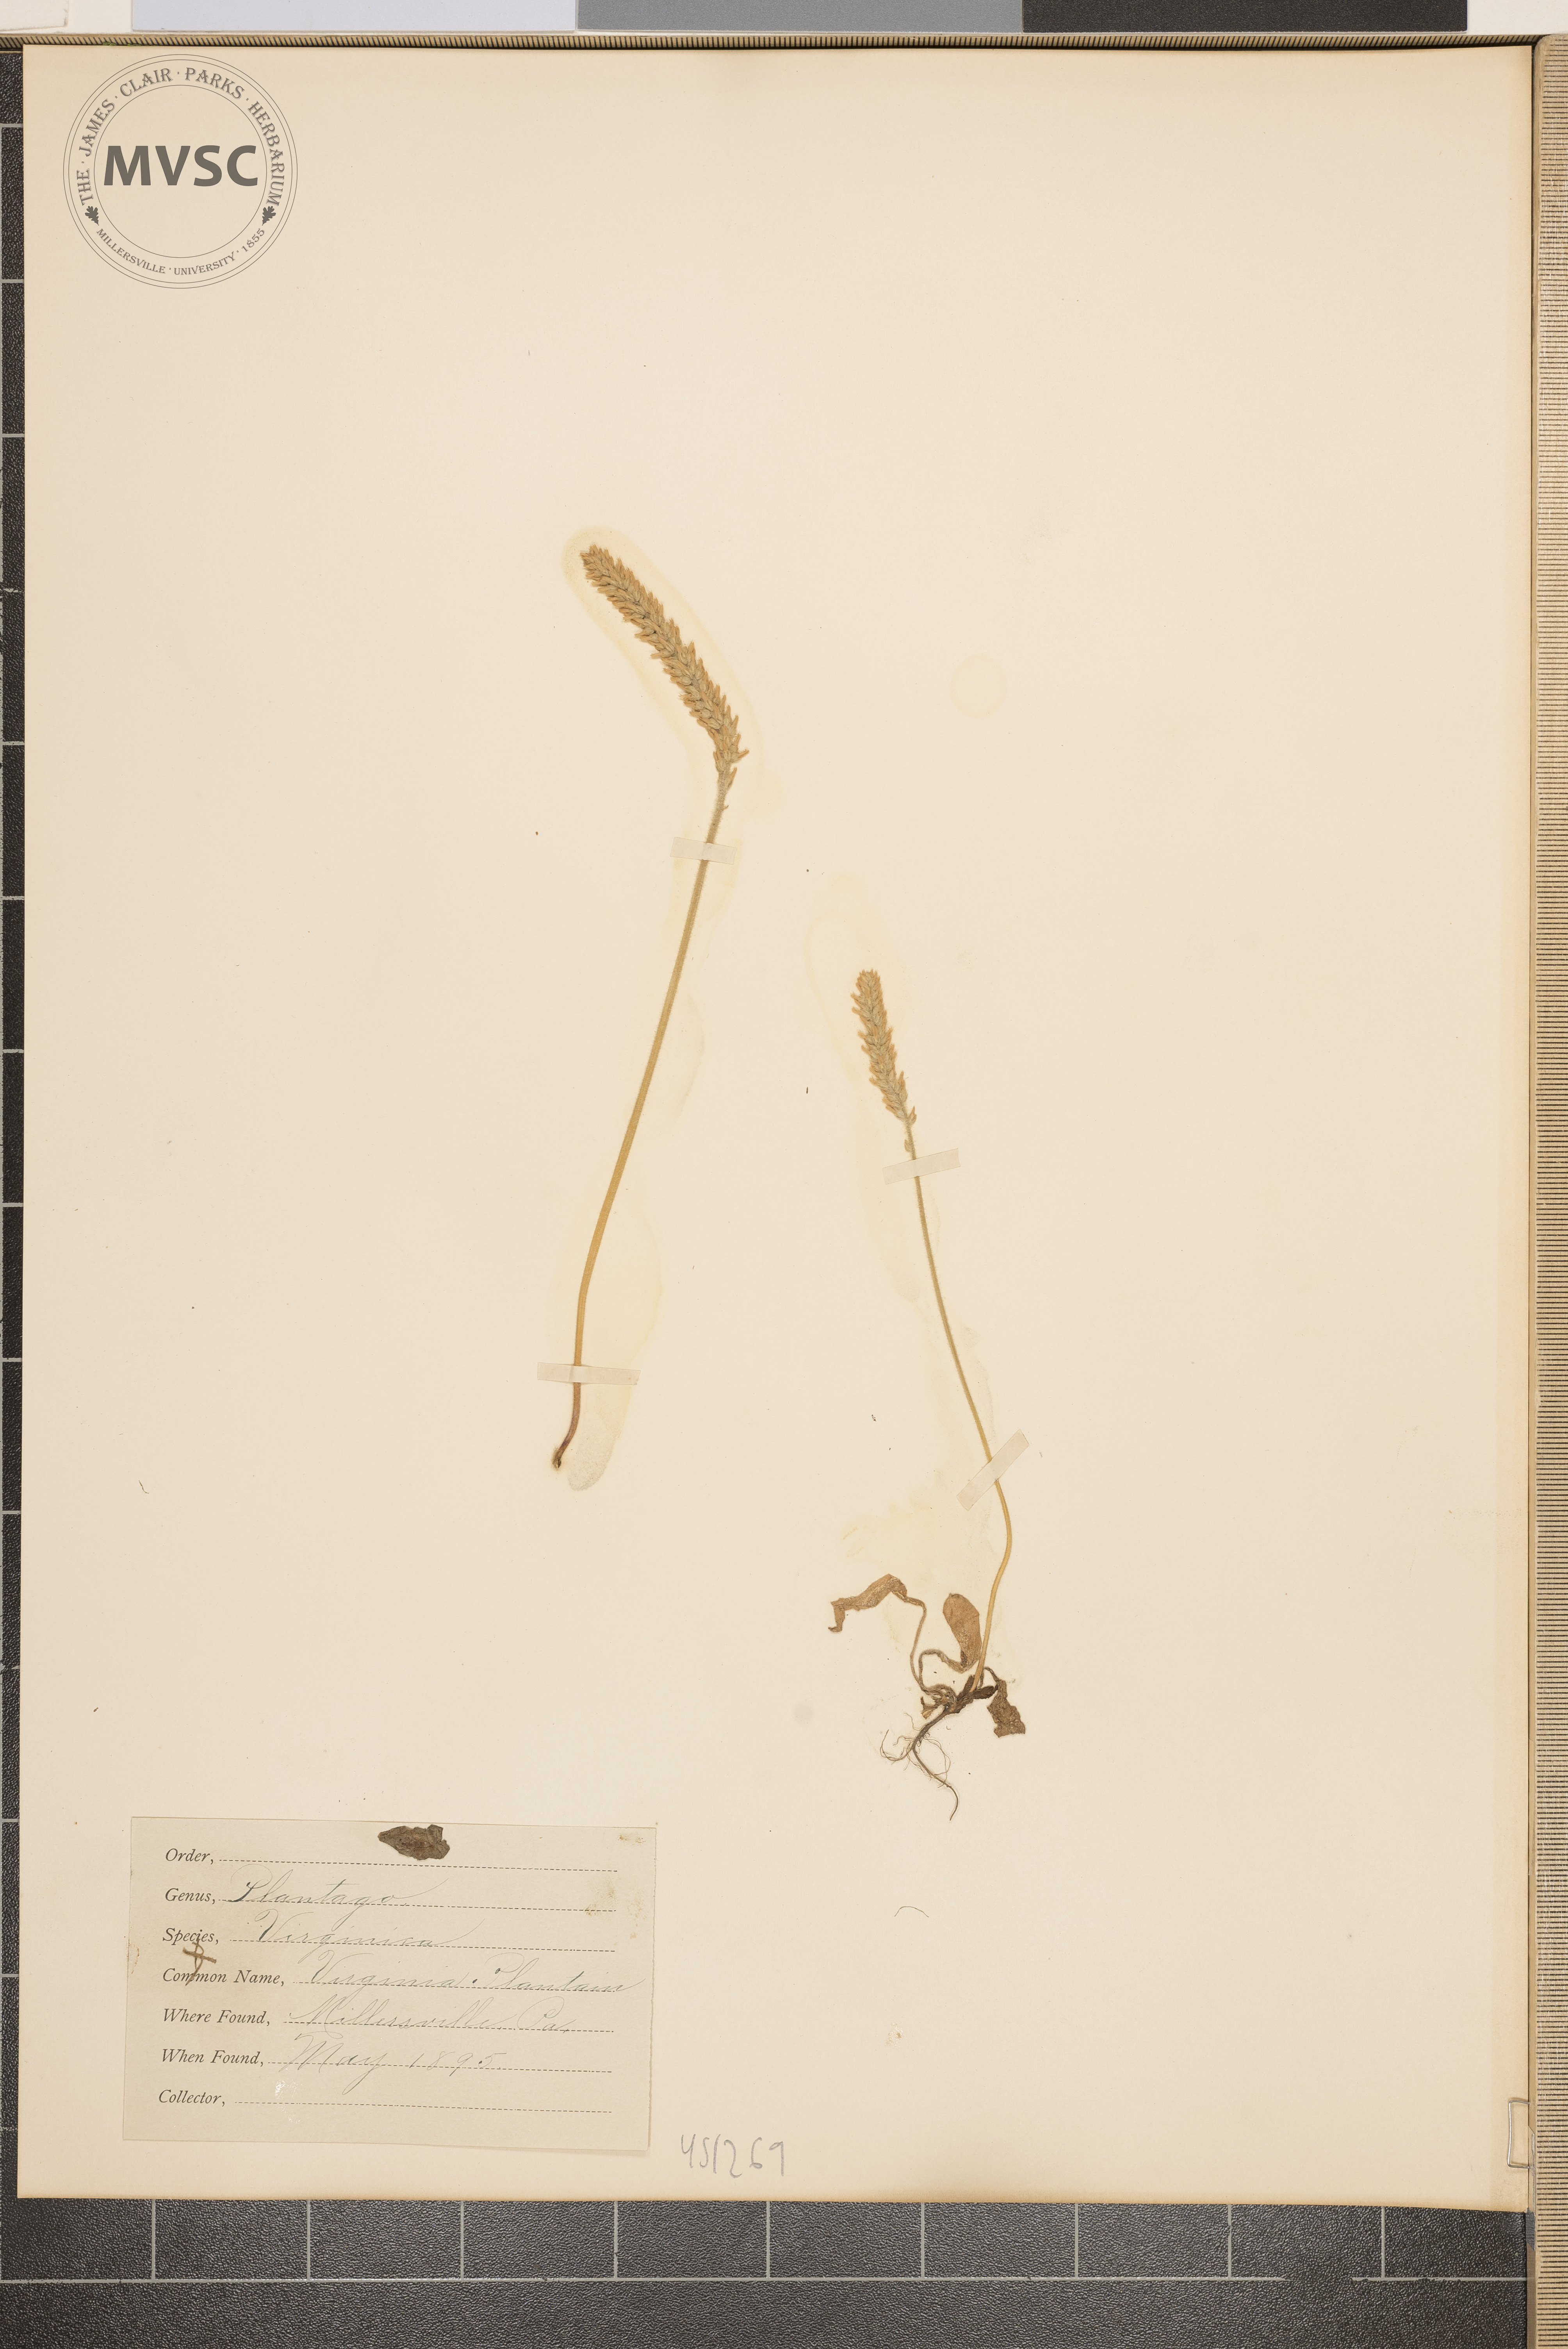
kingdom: Plantae
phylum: Tracheophyta
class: Magnoliopsida
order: Lamiales
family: Plantaginaceae
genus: Plantago
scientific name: Plantago virginica
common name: Virginia plantain
